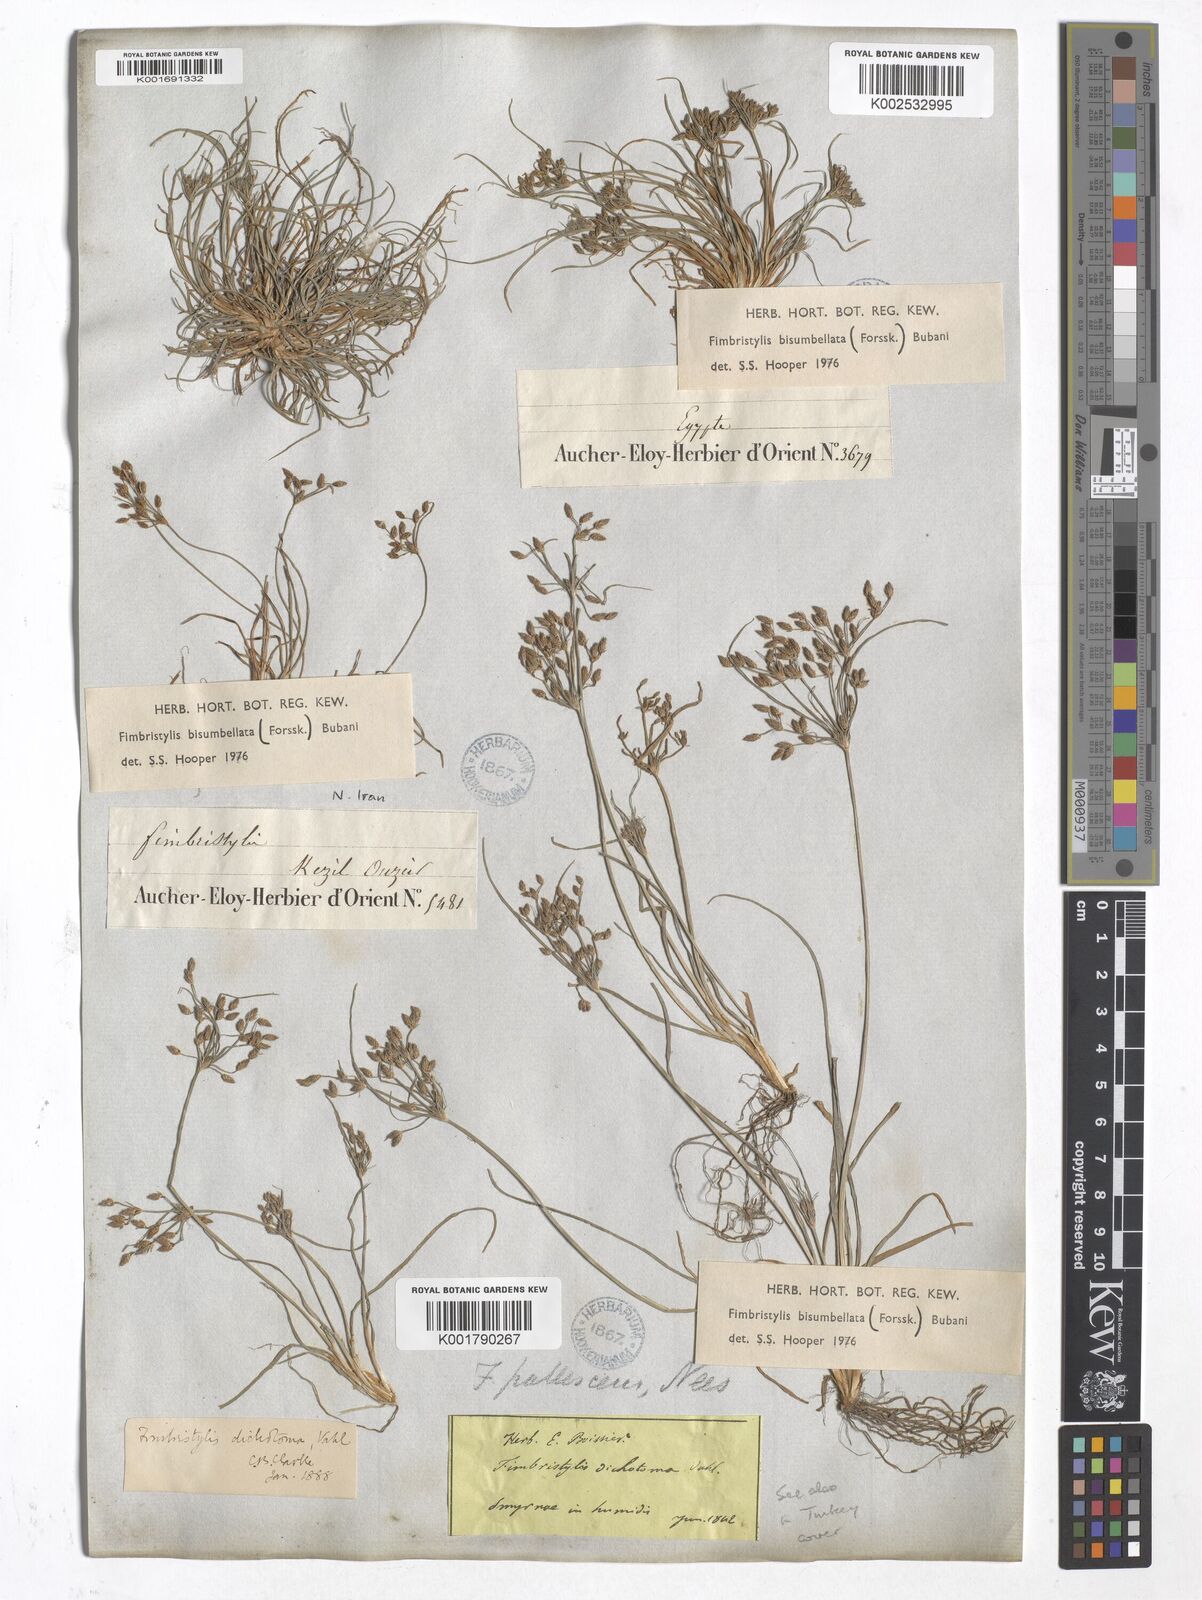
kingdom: Plantae
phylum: Tracheophyta
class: Liliopsida
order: Poales
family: Cyperaceae
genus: Fimbristylis
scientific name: Fimbristylis bisumbellata
